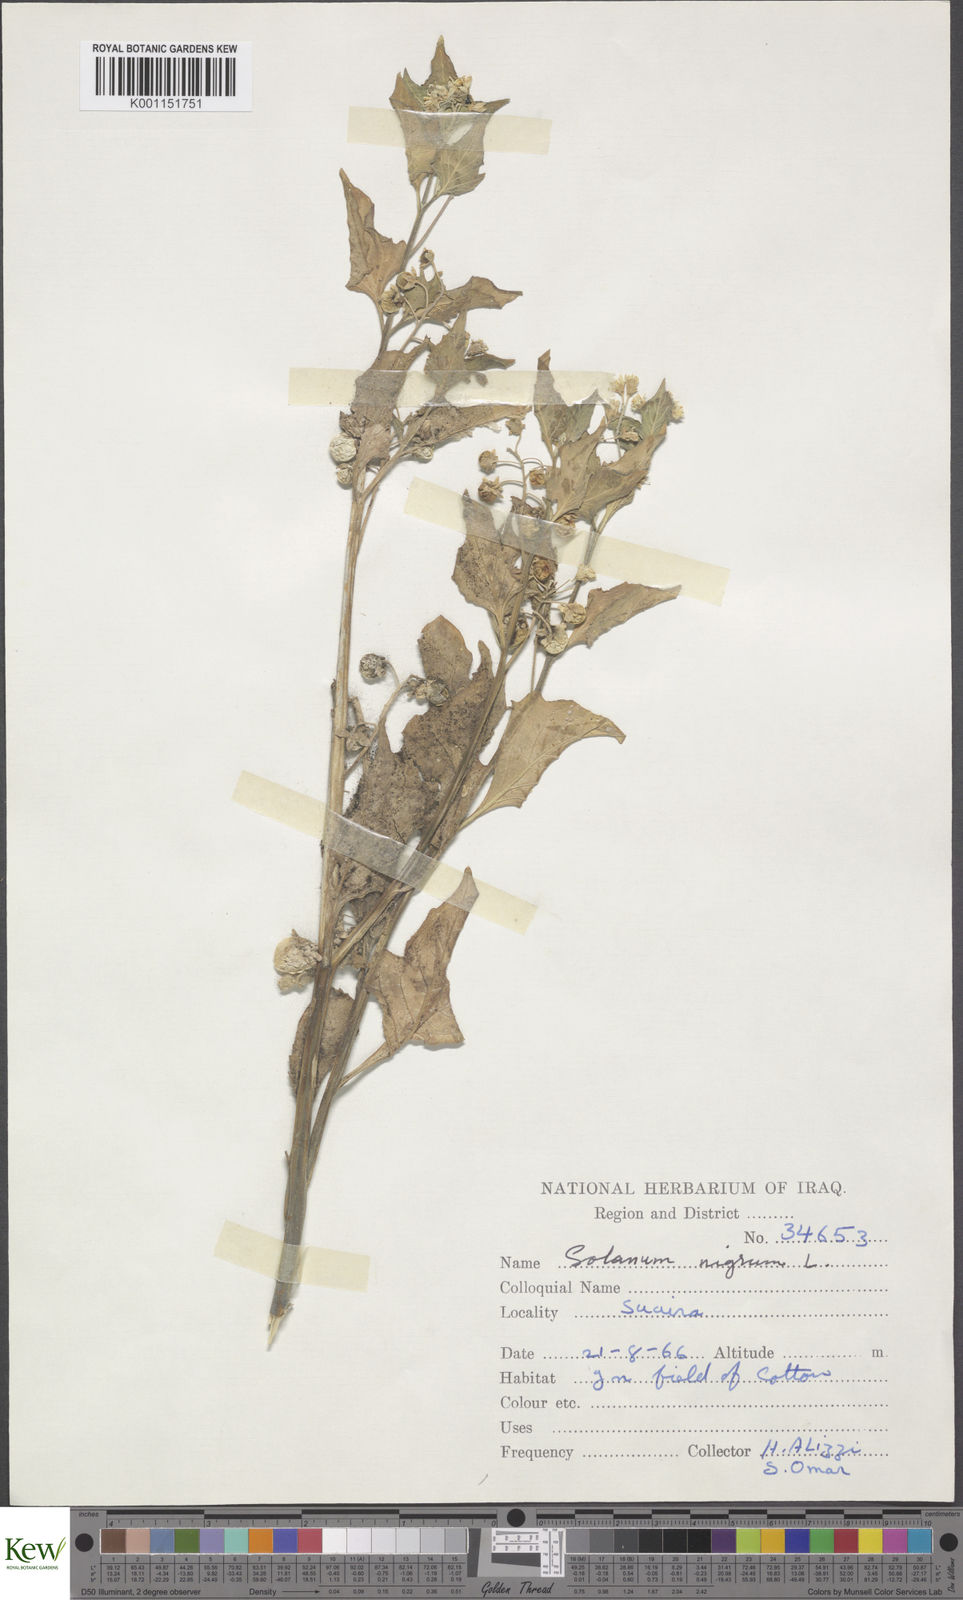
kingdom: Plantae
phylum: Tracheophyta
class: Magnoliopsida
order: Solanales
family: Solanaceae
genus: Solanum
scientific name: Solanum nigrum
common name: Black nightshade
